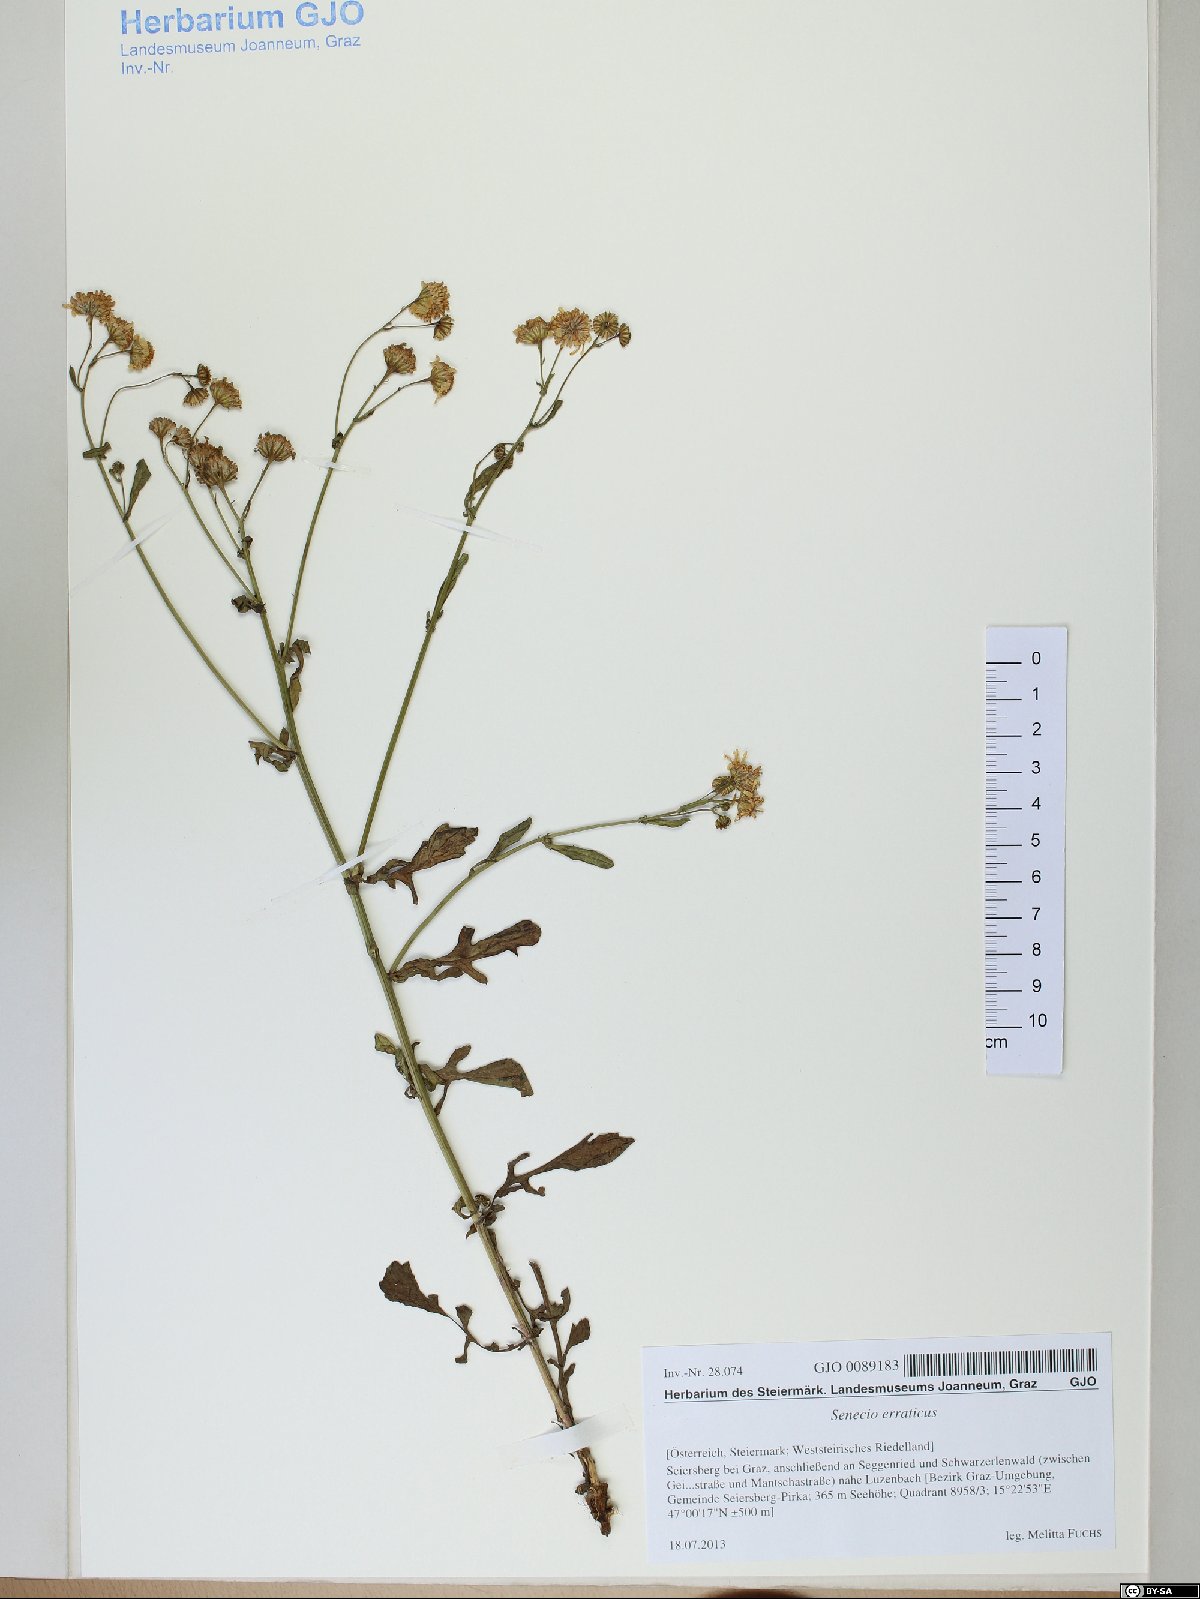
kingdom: Plantae
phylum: Tracheophyta
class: Magnoliopsida
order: Asterales
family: Asteraceae
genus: Jacobaea
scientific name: Jacobaea erratica
